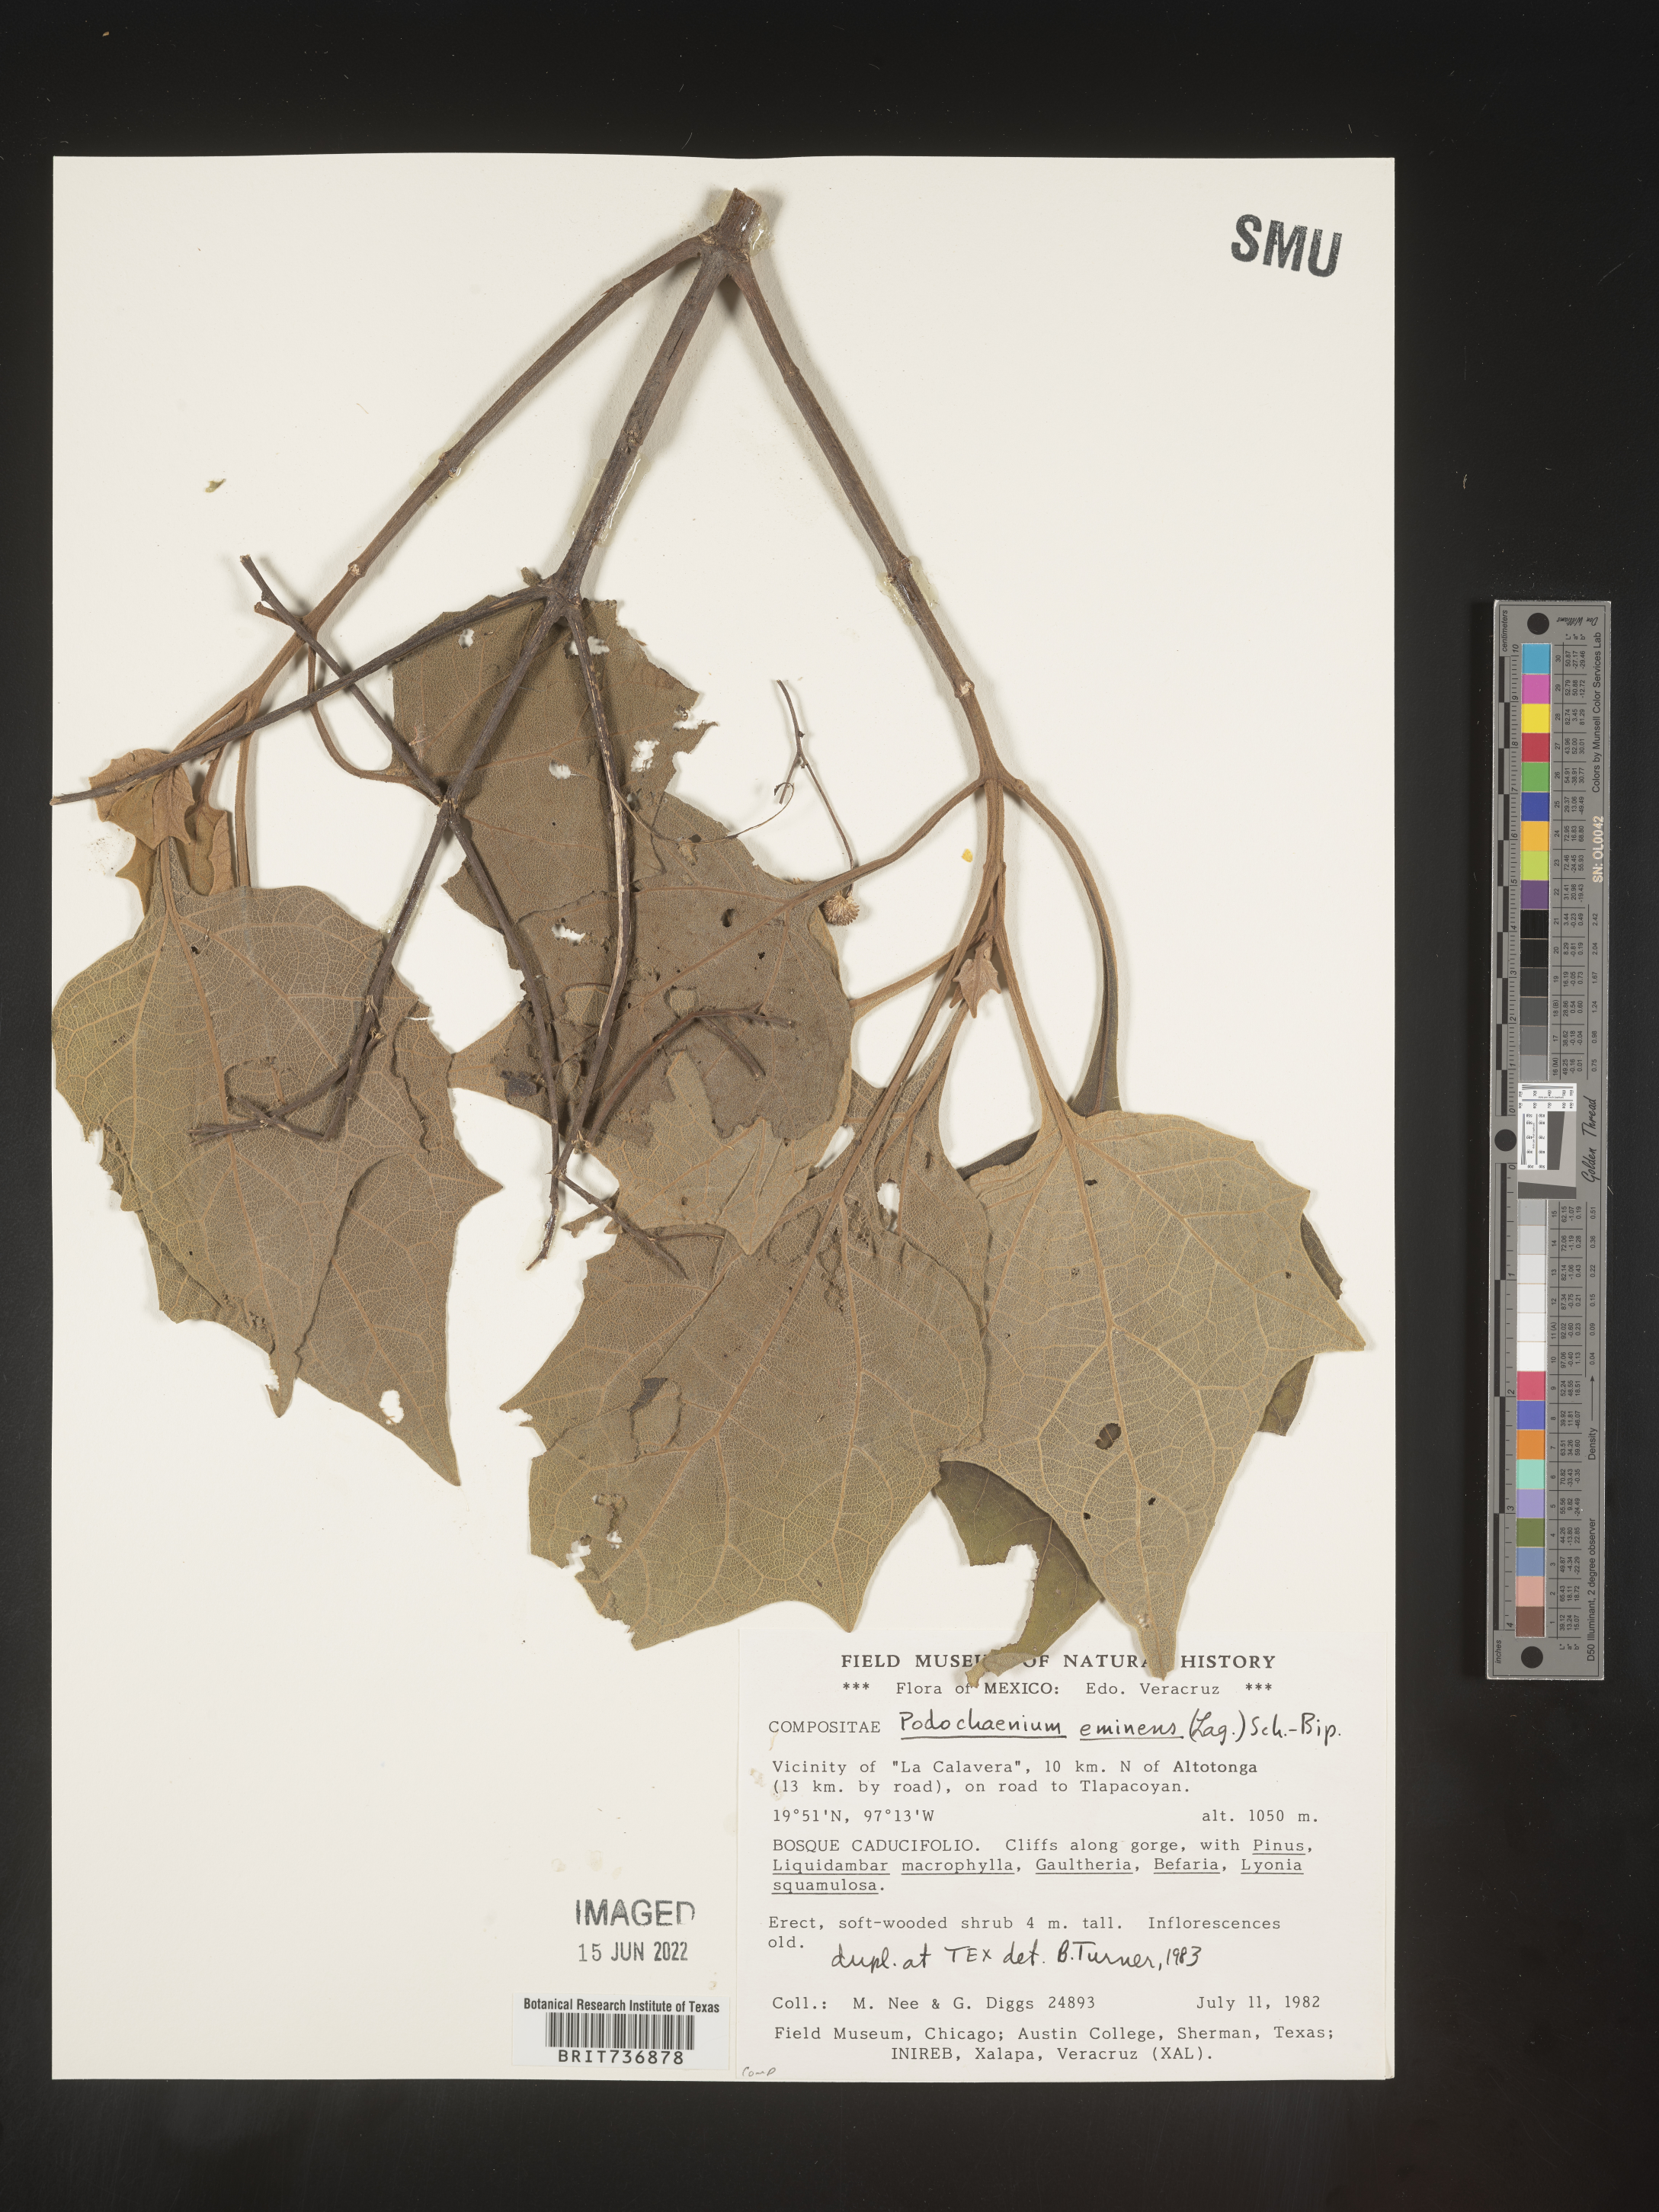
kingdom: Plantae
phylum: Tracheophyta
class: Magnoliopsida
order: Asterales
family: Asteraceae
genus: Podachaenium
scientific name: Podachaenium
